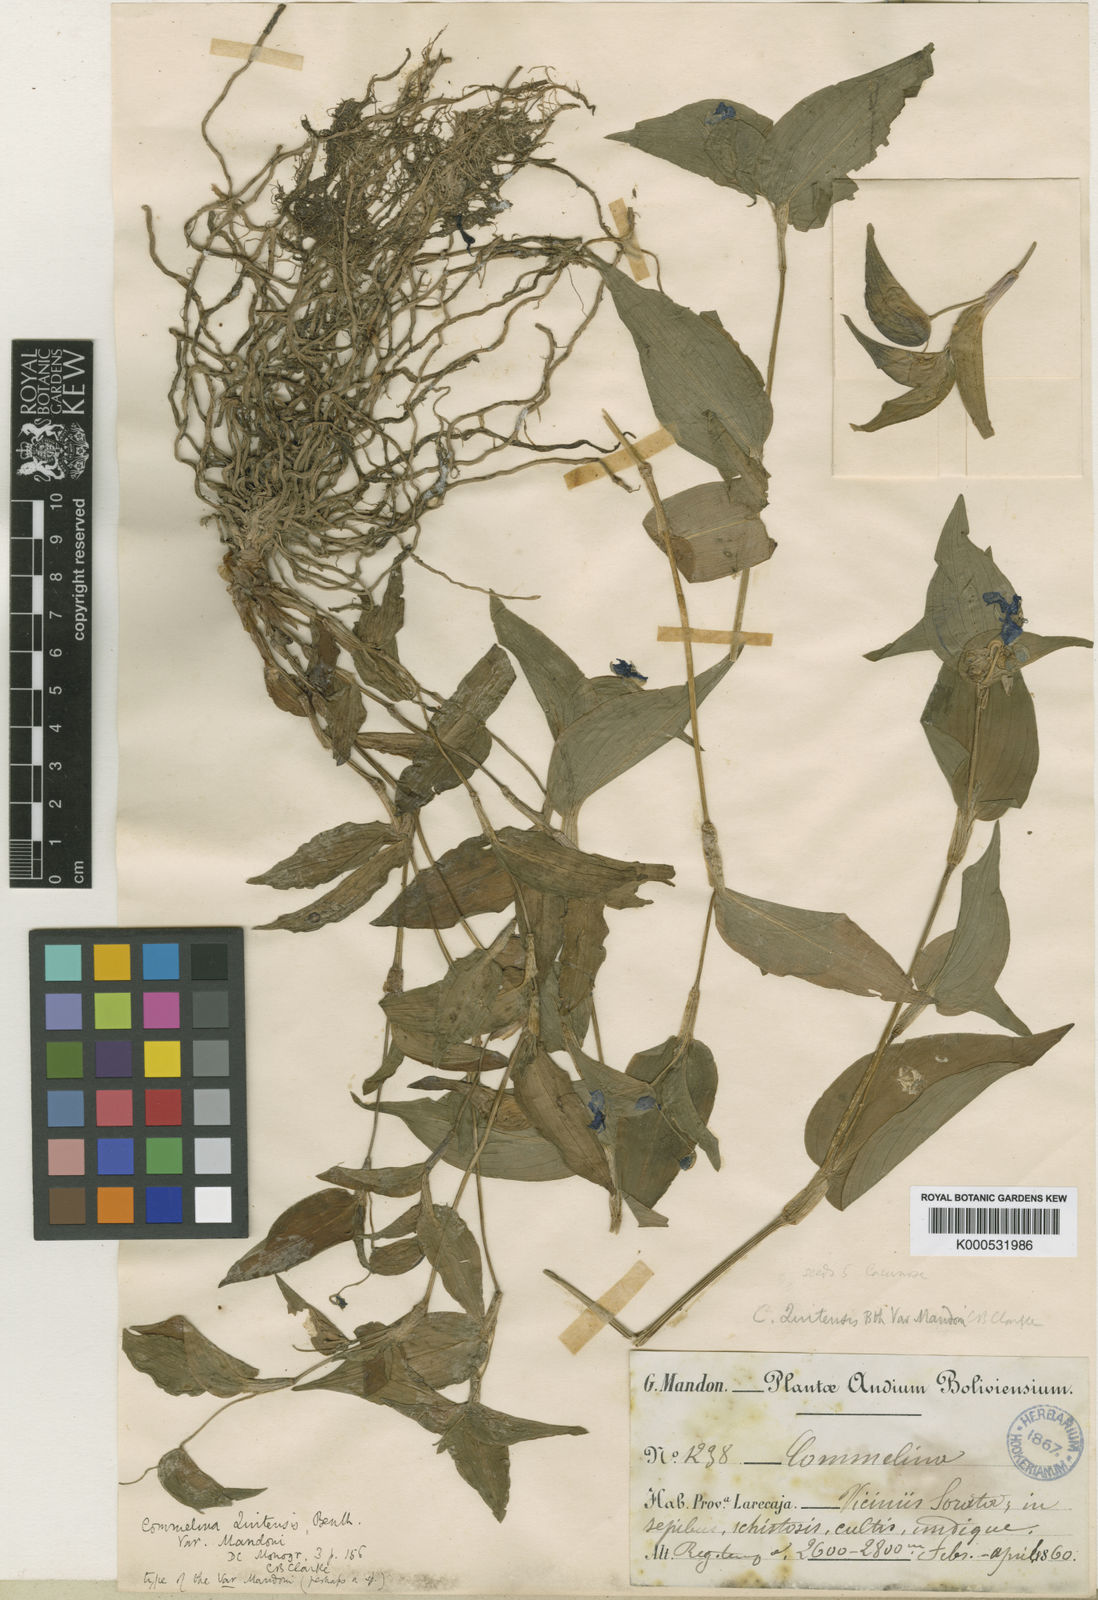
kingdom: Plantae
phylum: Tracheophyta
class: Liliopsida
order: Commelinales
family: Commelinaceae
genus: Commelina
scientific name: Commelina tuberosa
